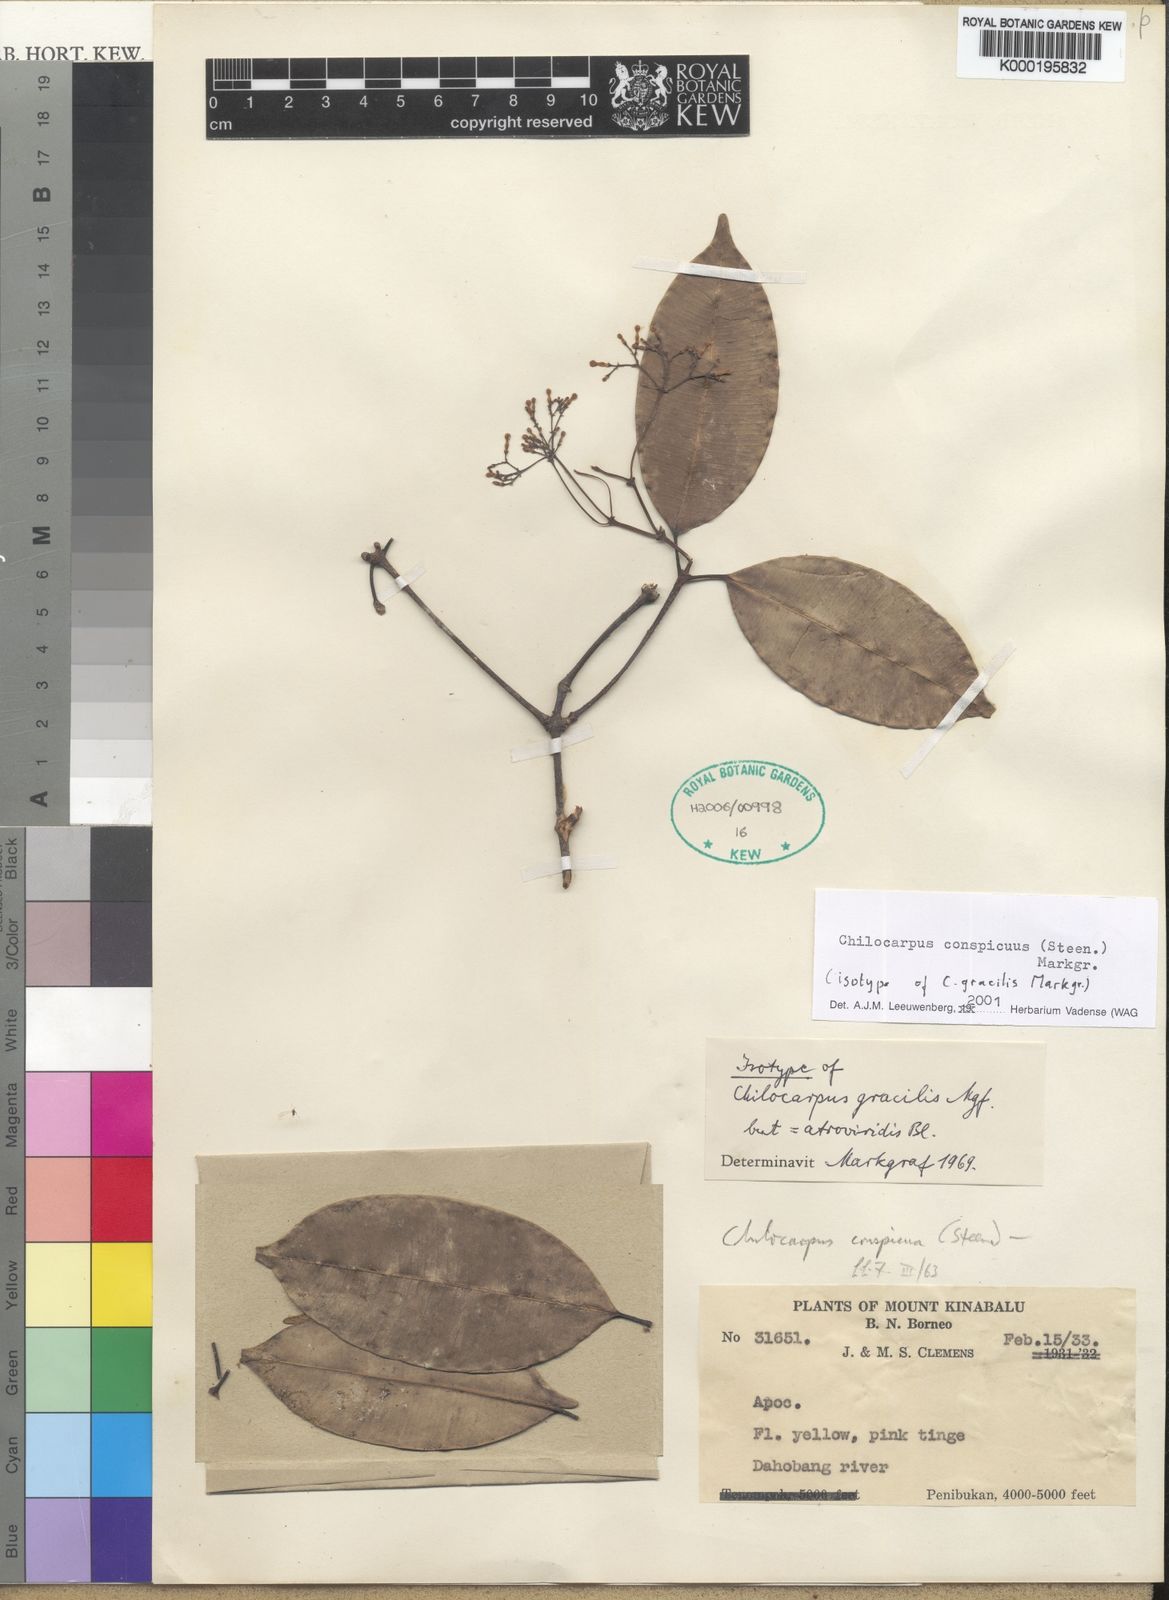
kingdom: Plantae
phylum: Tracheophyta
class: Magnoliopsida
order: Gentianales
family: Apocynaceae
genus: Chilocarpus
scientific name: Chilocarpus conspicuus
